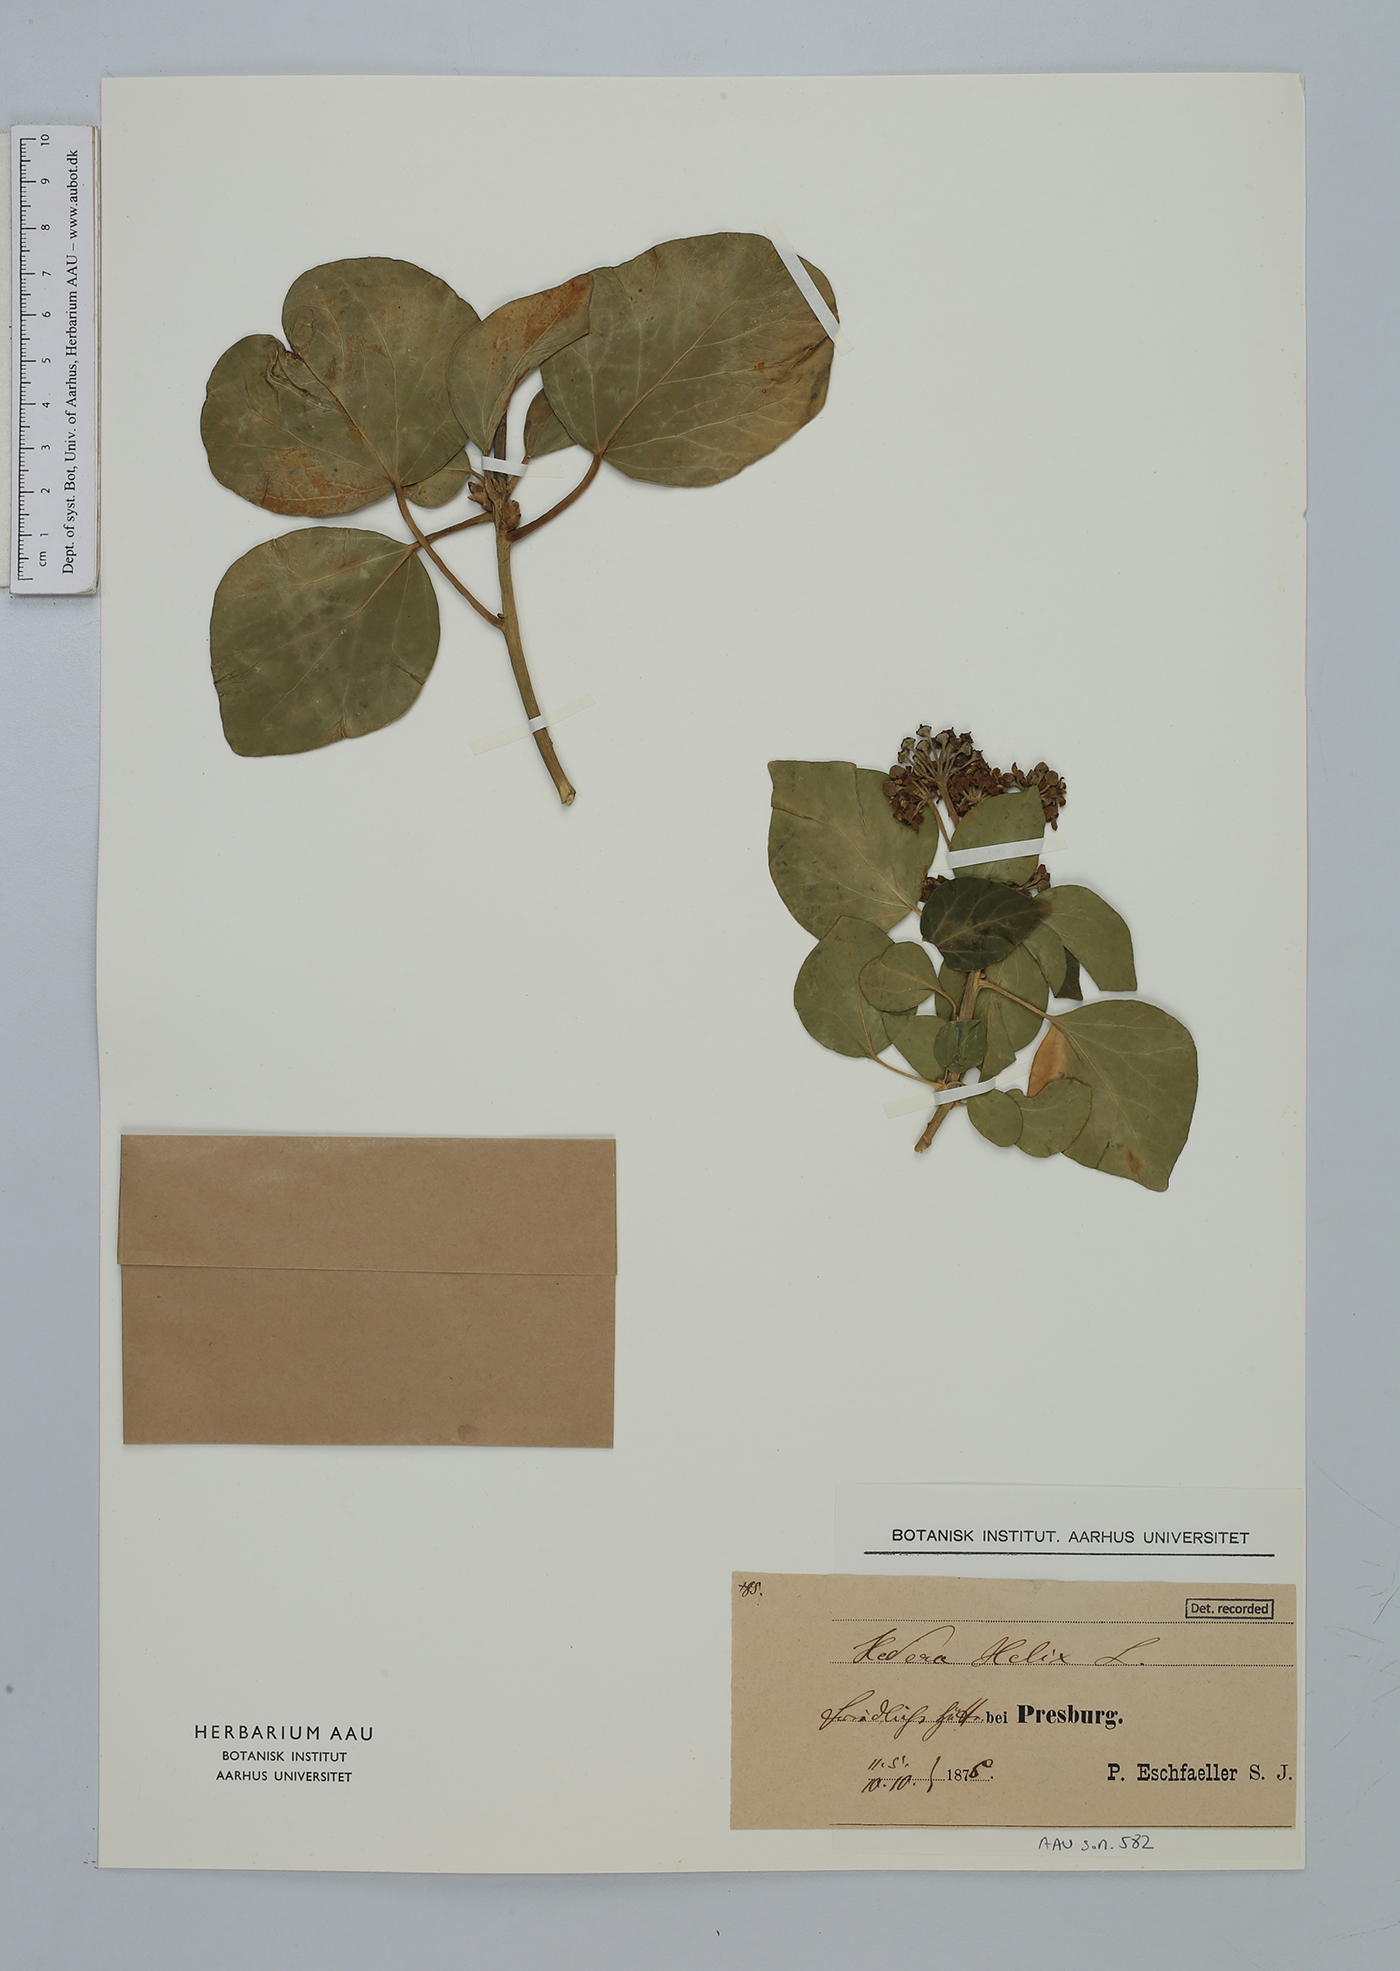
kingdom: Plantae
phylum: Tracheophyta
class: Magnoliopsida
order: Apiales
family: Araliaceae
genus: Hedera
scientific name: Hedera helix
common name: Ivy
